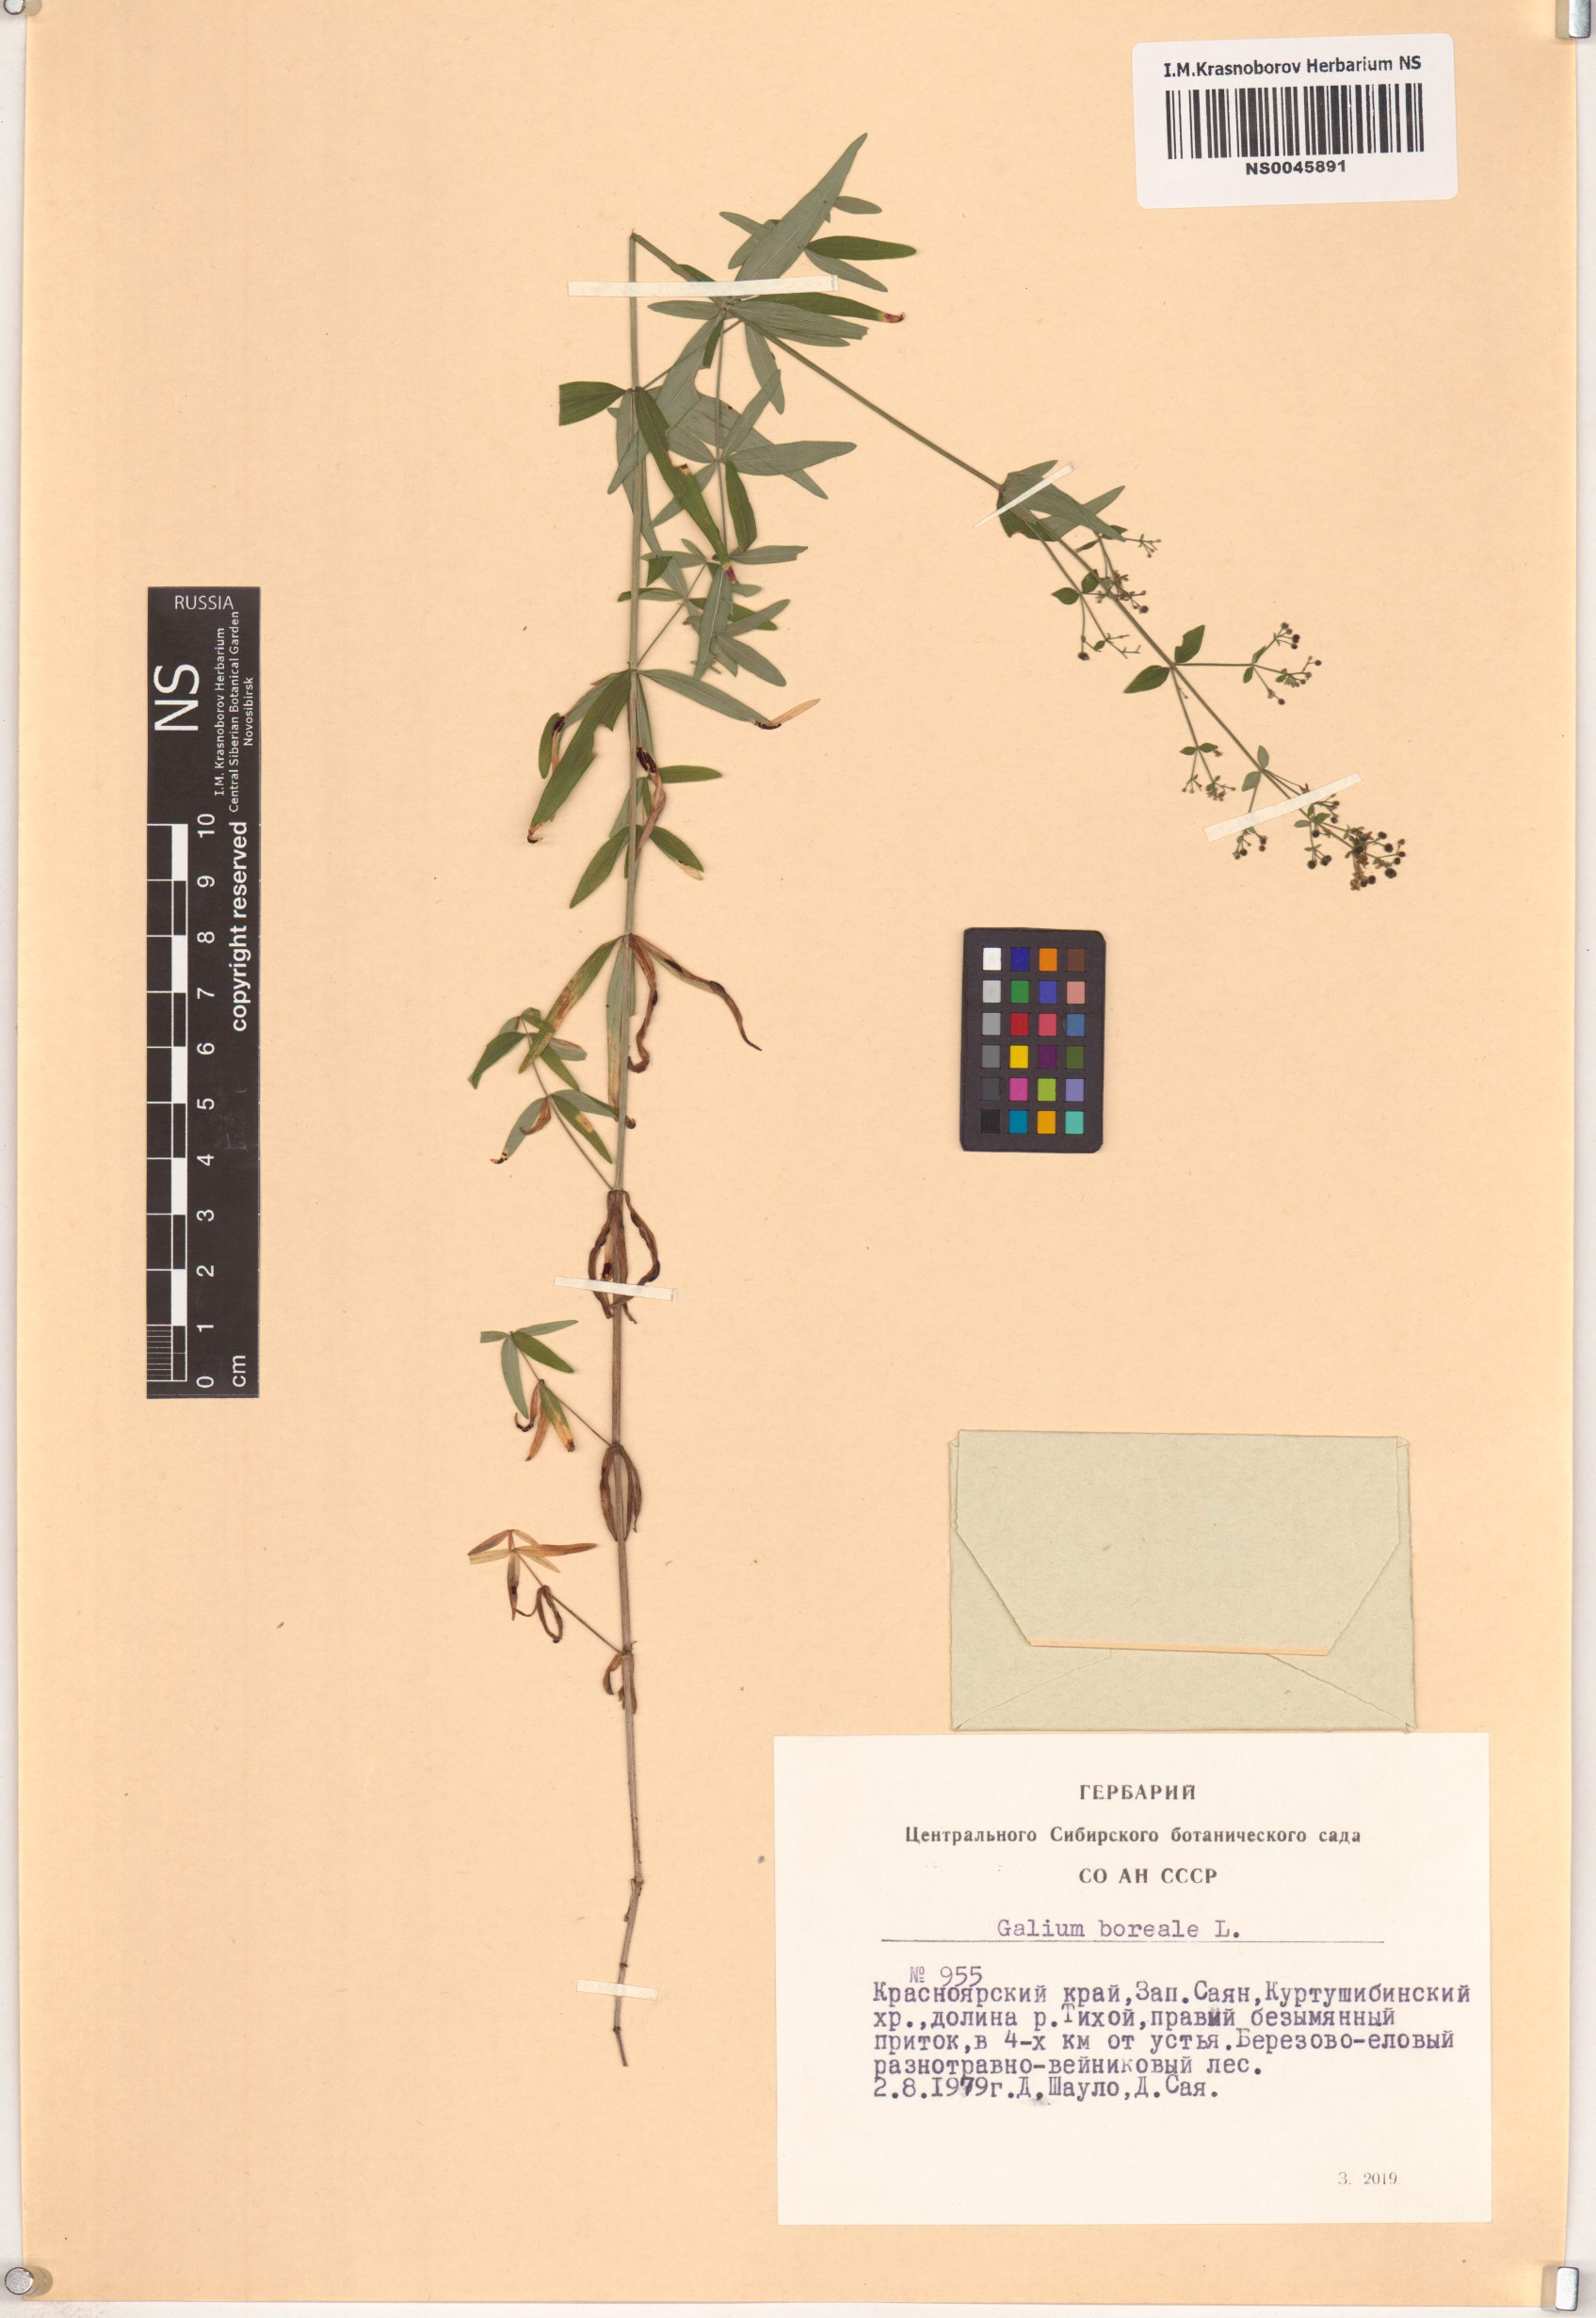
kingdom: Plantae
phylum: Tracheophyta
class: Magnoliopsida
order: Gentianales
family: Rubiaceae
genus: Galium
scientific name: Galium boreale
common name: Northern bedstraw
